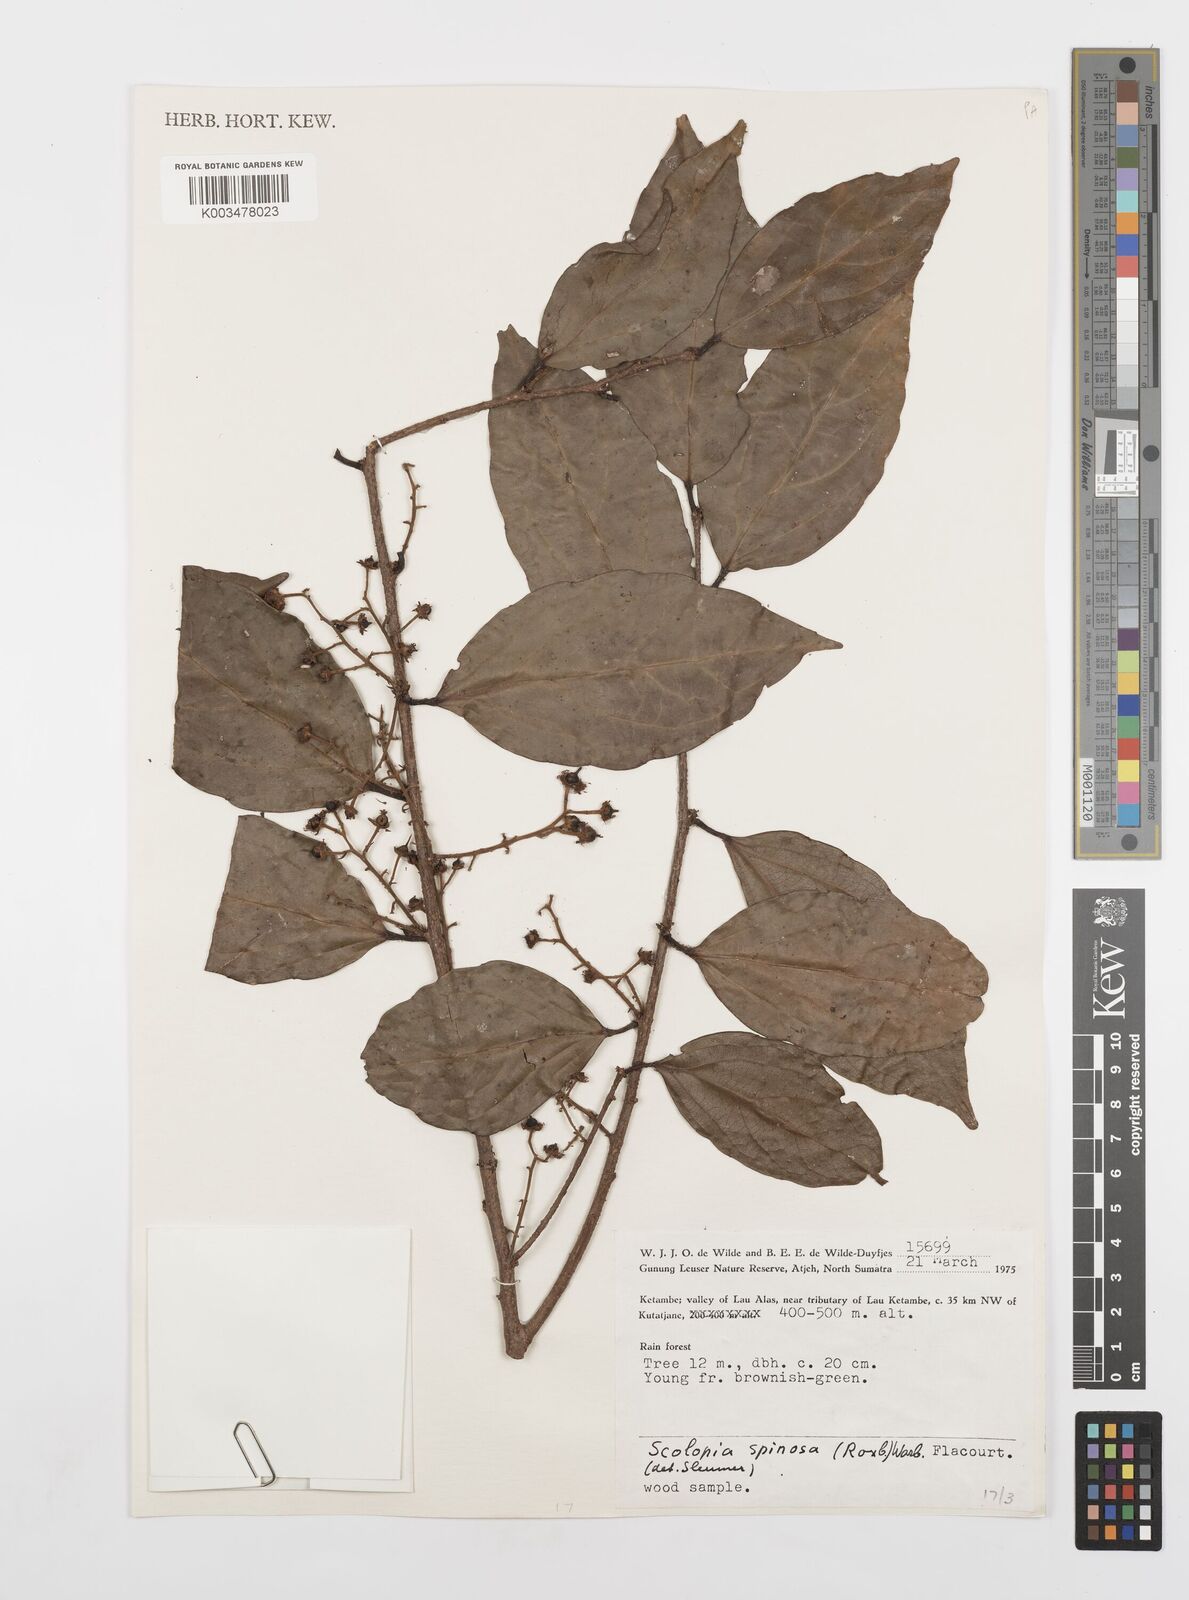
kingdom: Plantae
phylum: Tracheophyta
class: Magnoliopsida
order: Malpighiales
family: Salicaceae
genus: Scolopia
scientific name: Scolopia spinosa
